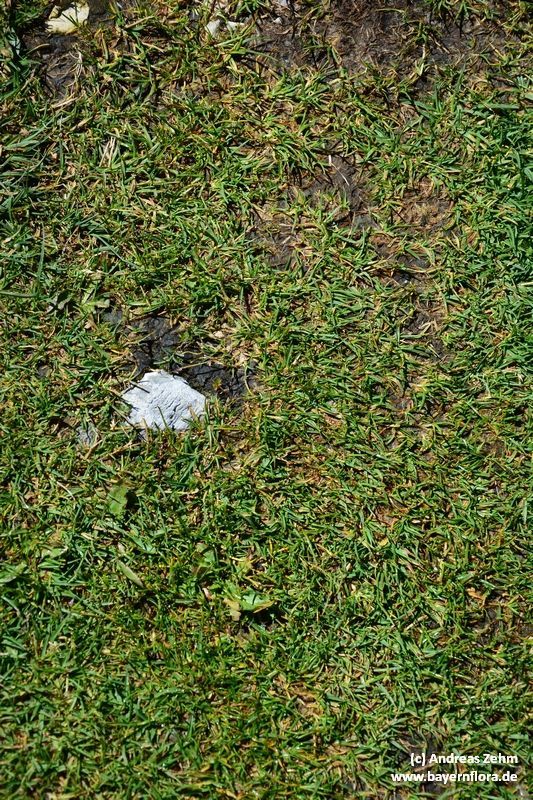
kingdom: Plantae
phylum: Tracheophyta
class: Liliopsida
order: Poales
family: Poaceae
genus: Poa
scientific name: Poa supina
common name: Supina bluegrass
